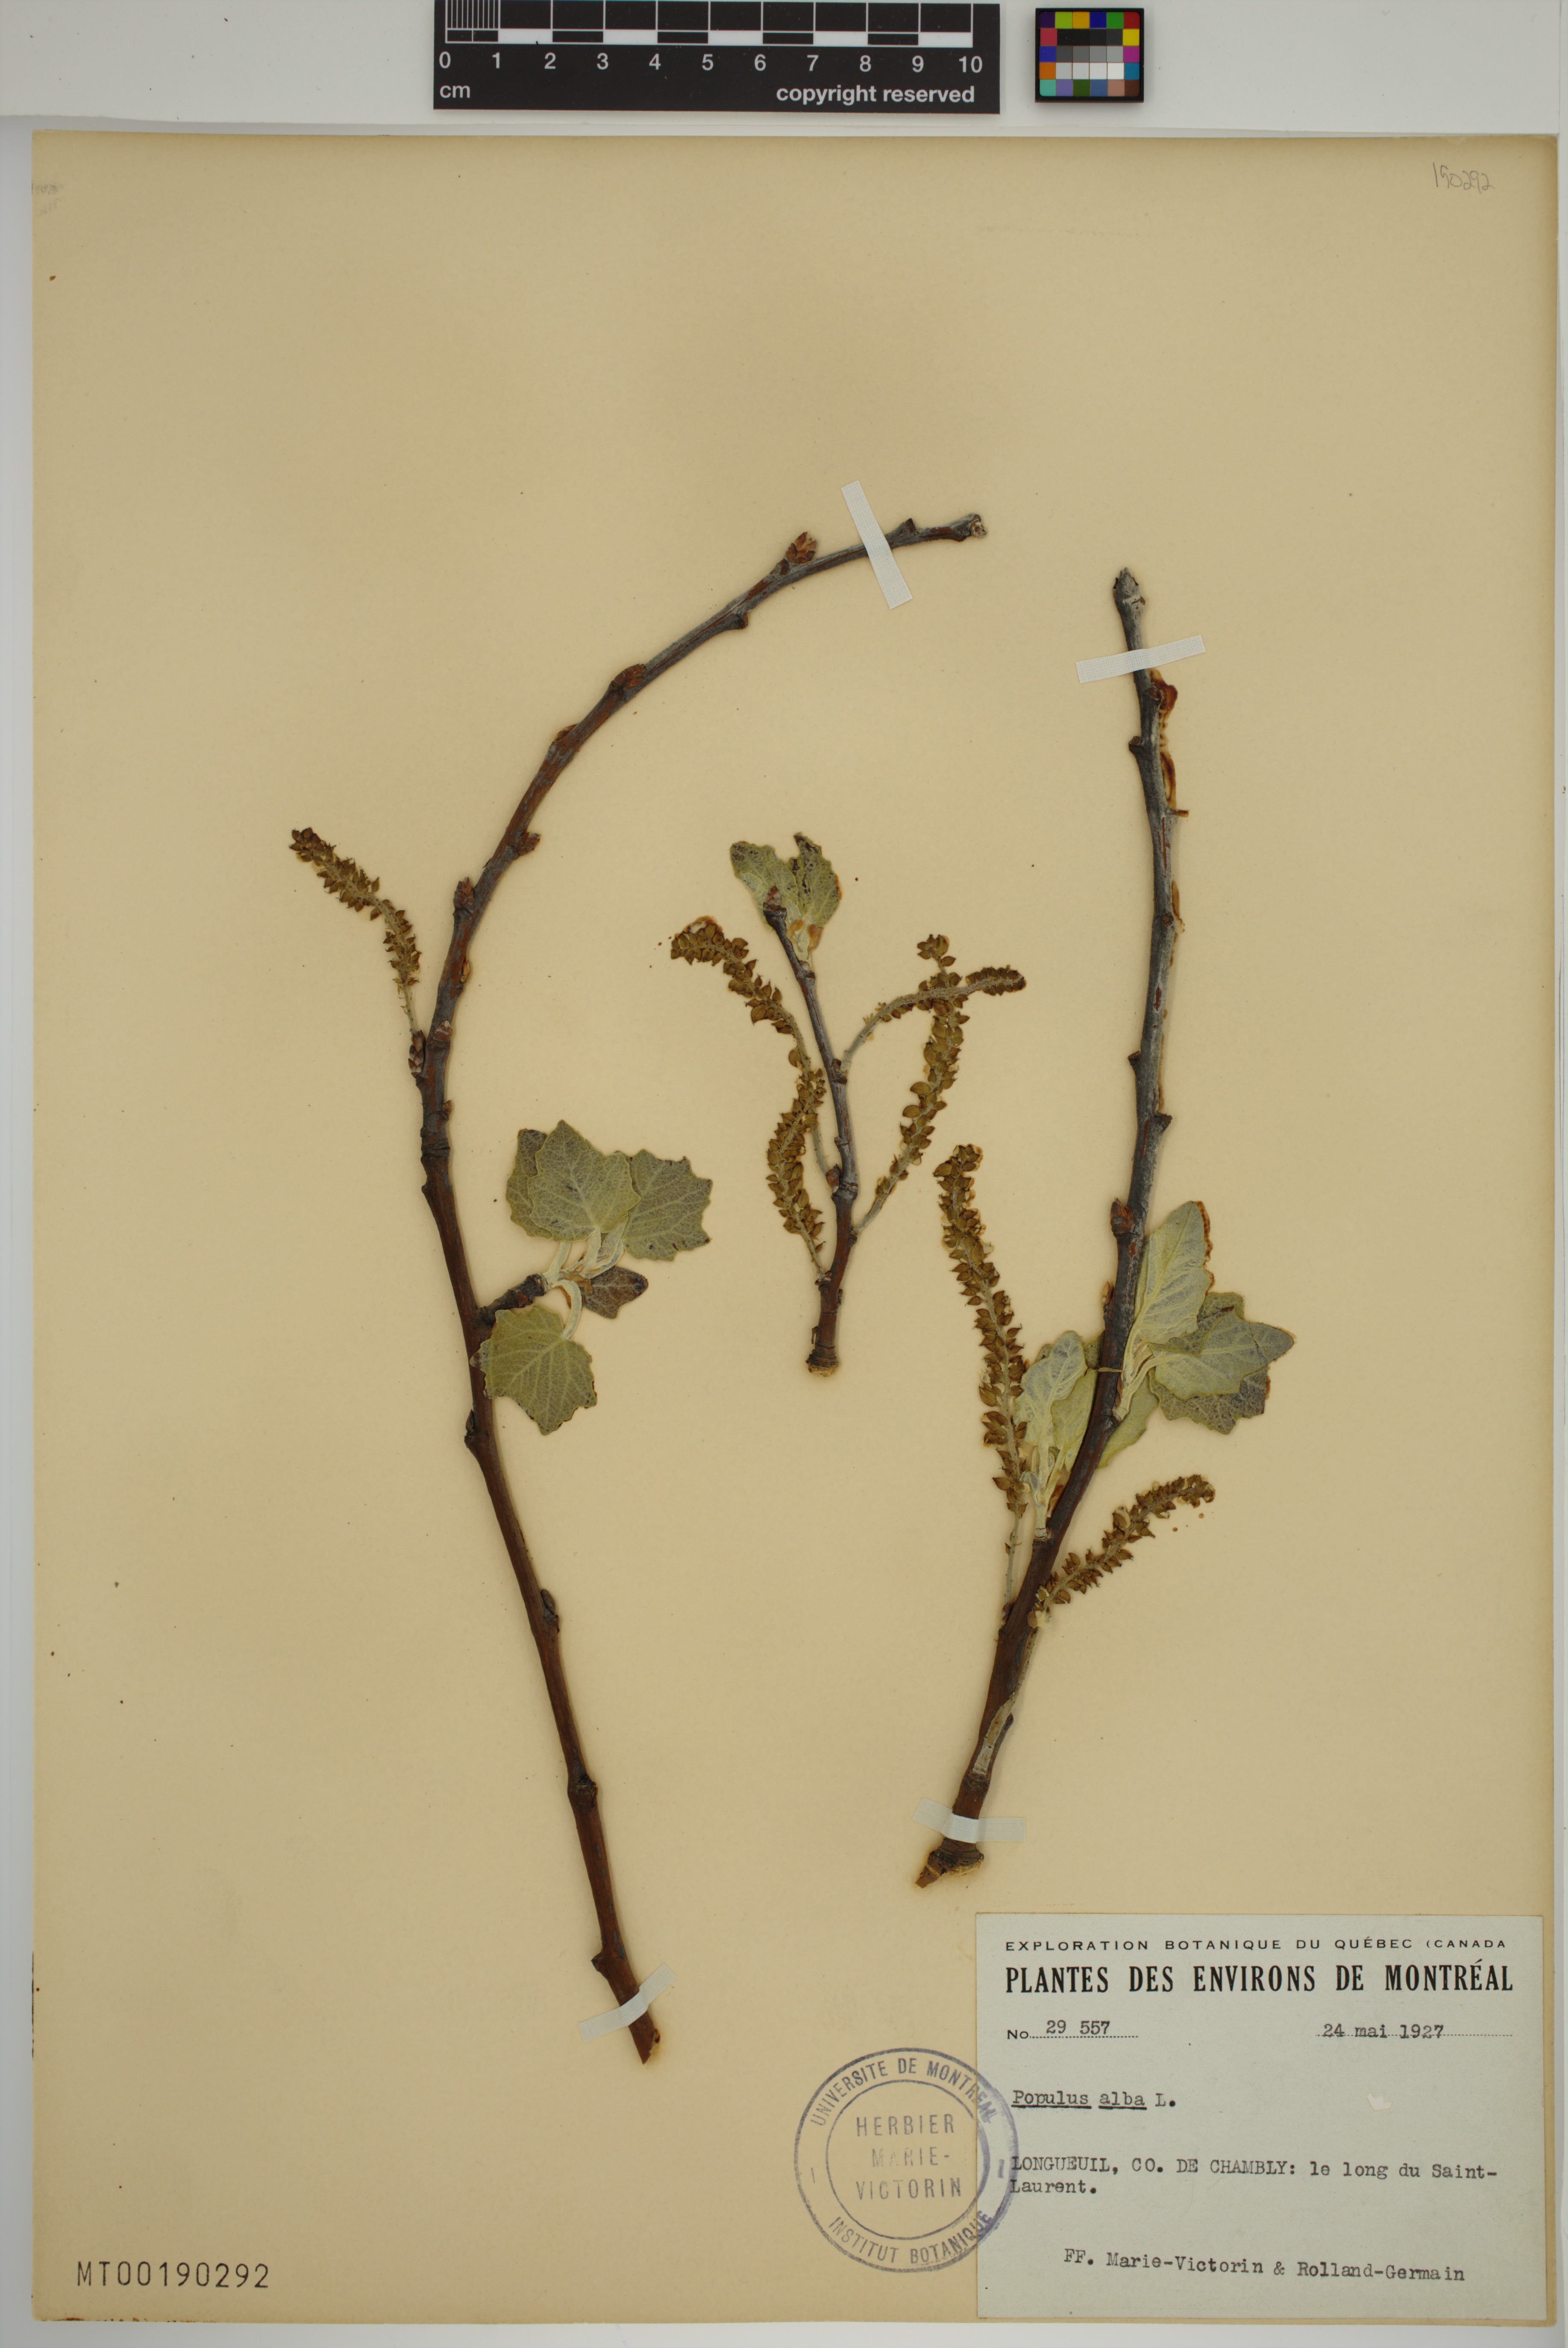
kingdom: Plantae
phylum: Tracheophyta
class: Magnoliopsida
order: Malpighiales
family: Salicaceae
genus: Populus
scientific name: Populus alba
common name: White poplar
